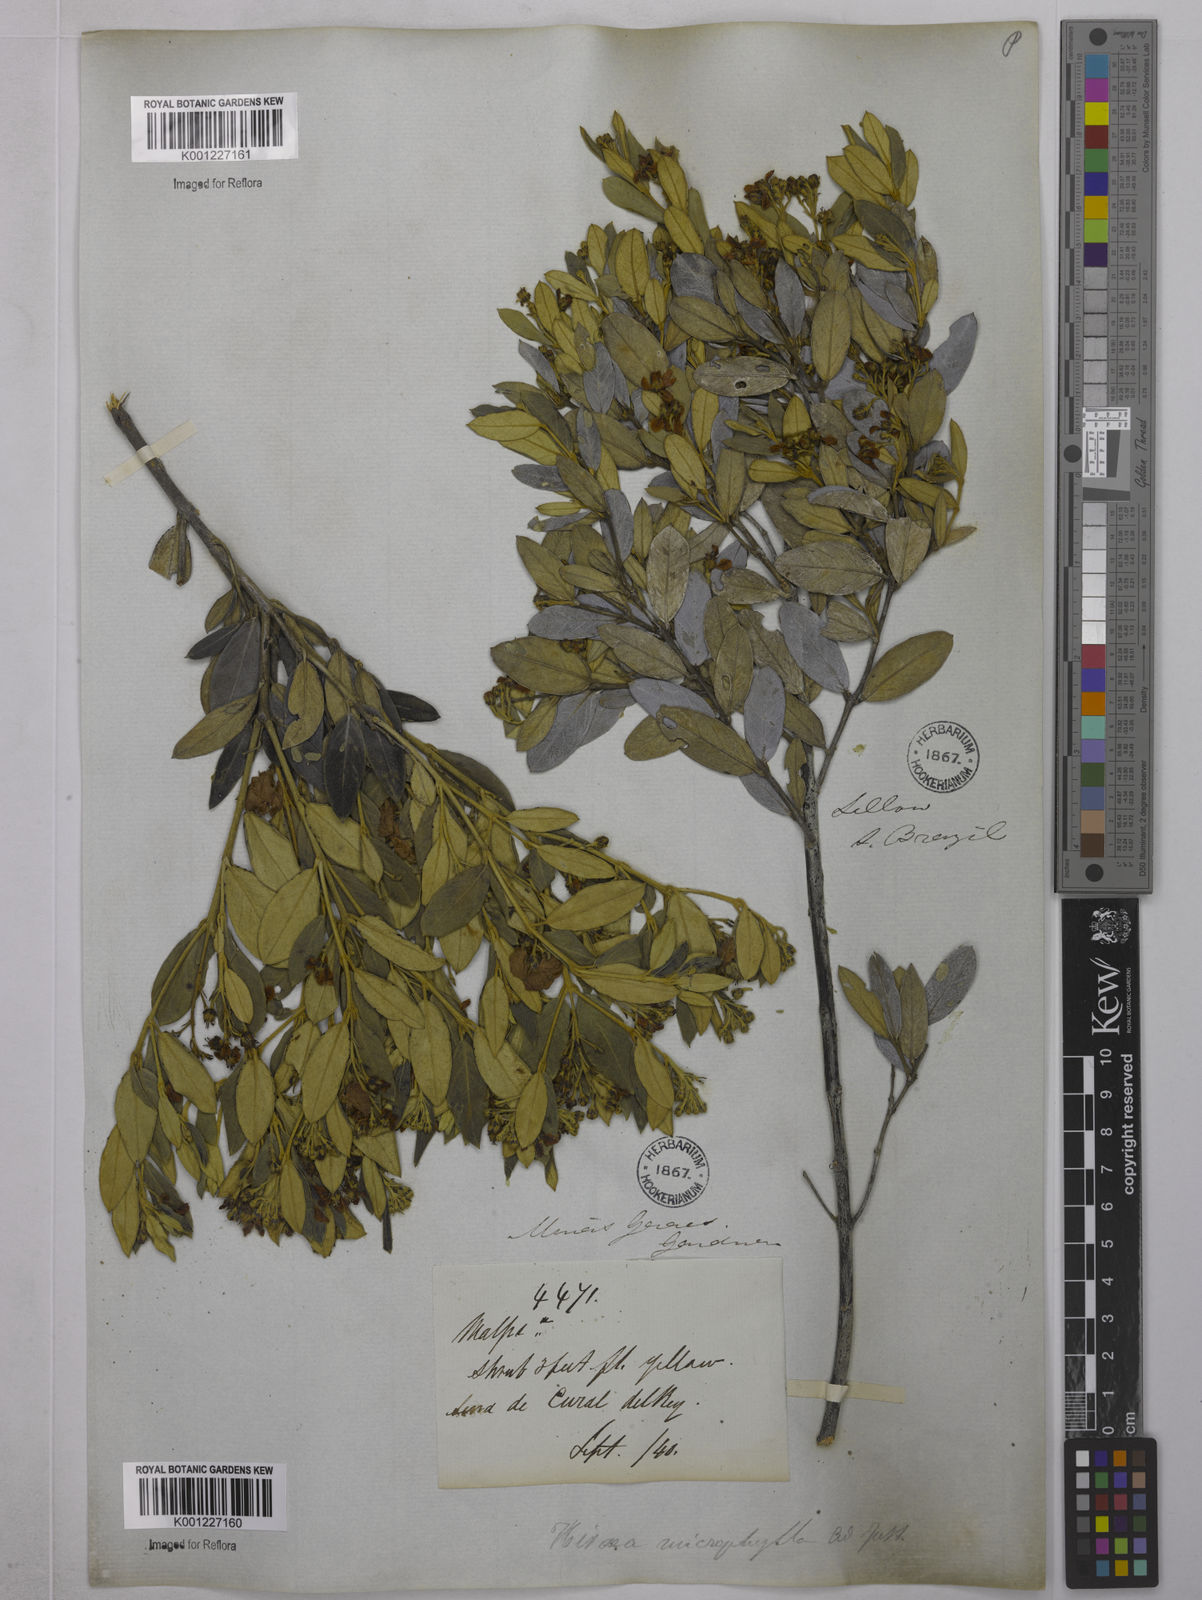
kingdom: Plantae
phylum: Tracheophyta
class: Magnoliopsida
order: Malpighiales
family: Malpighiaceae
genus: Glicophyllum
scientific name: Glicophyllum microphyllum
